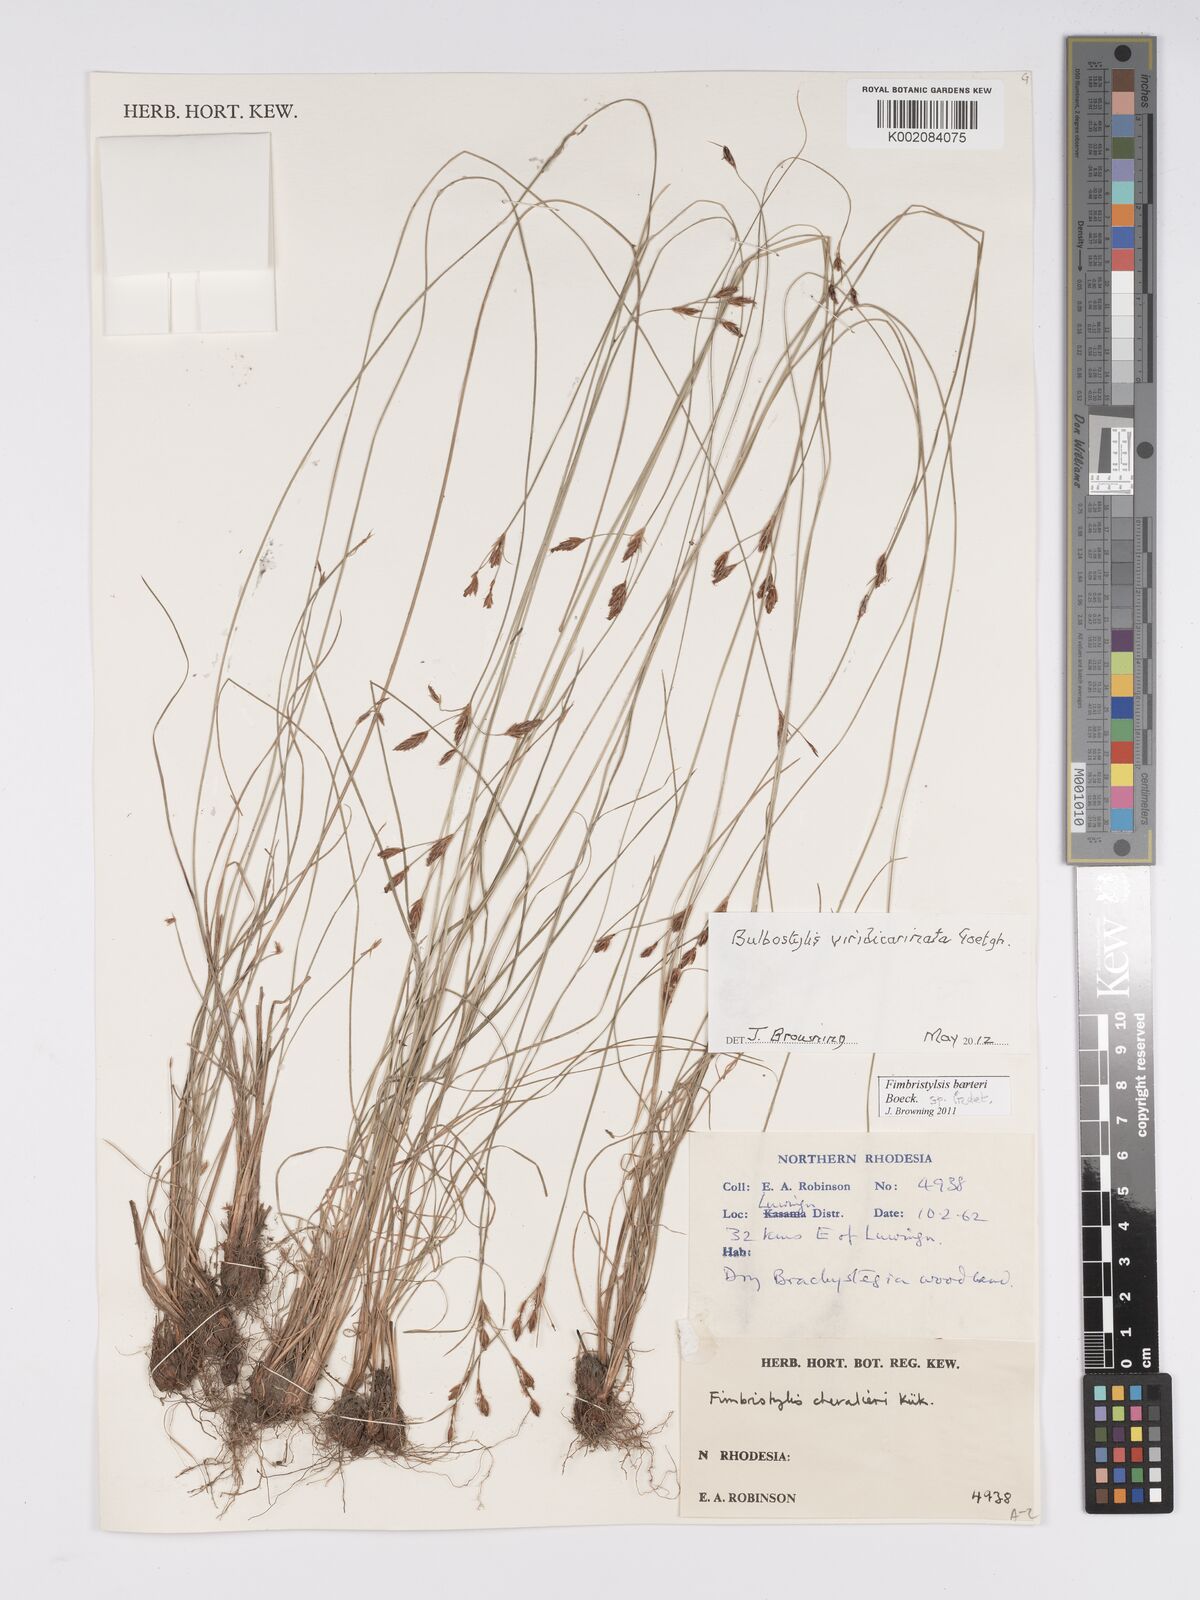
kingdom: Plantae
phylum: Tracheophyta
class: Liliopsida
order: Poales
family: Cyperaceae
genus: Bulbostylis
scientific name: Bulbostylis viridecarinata
